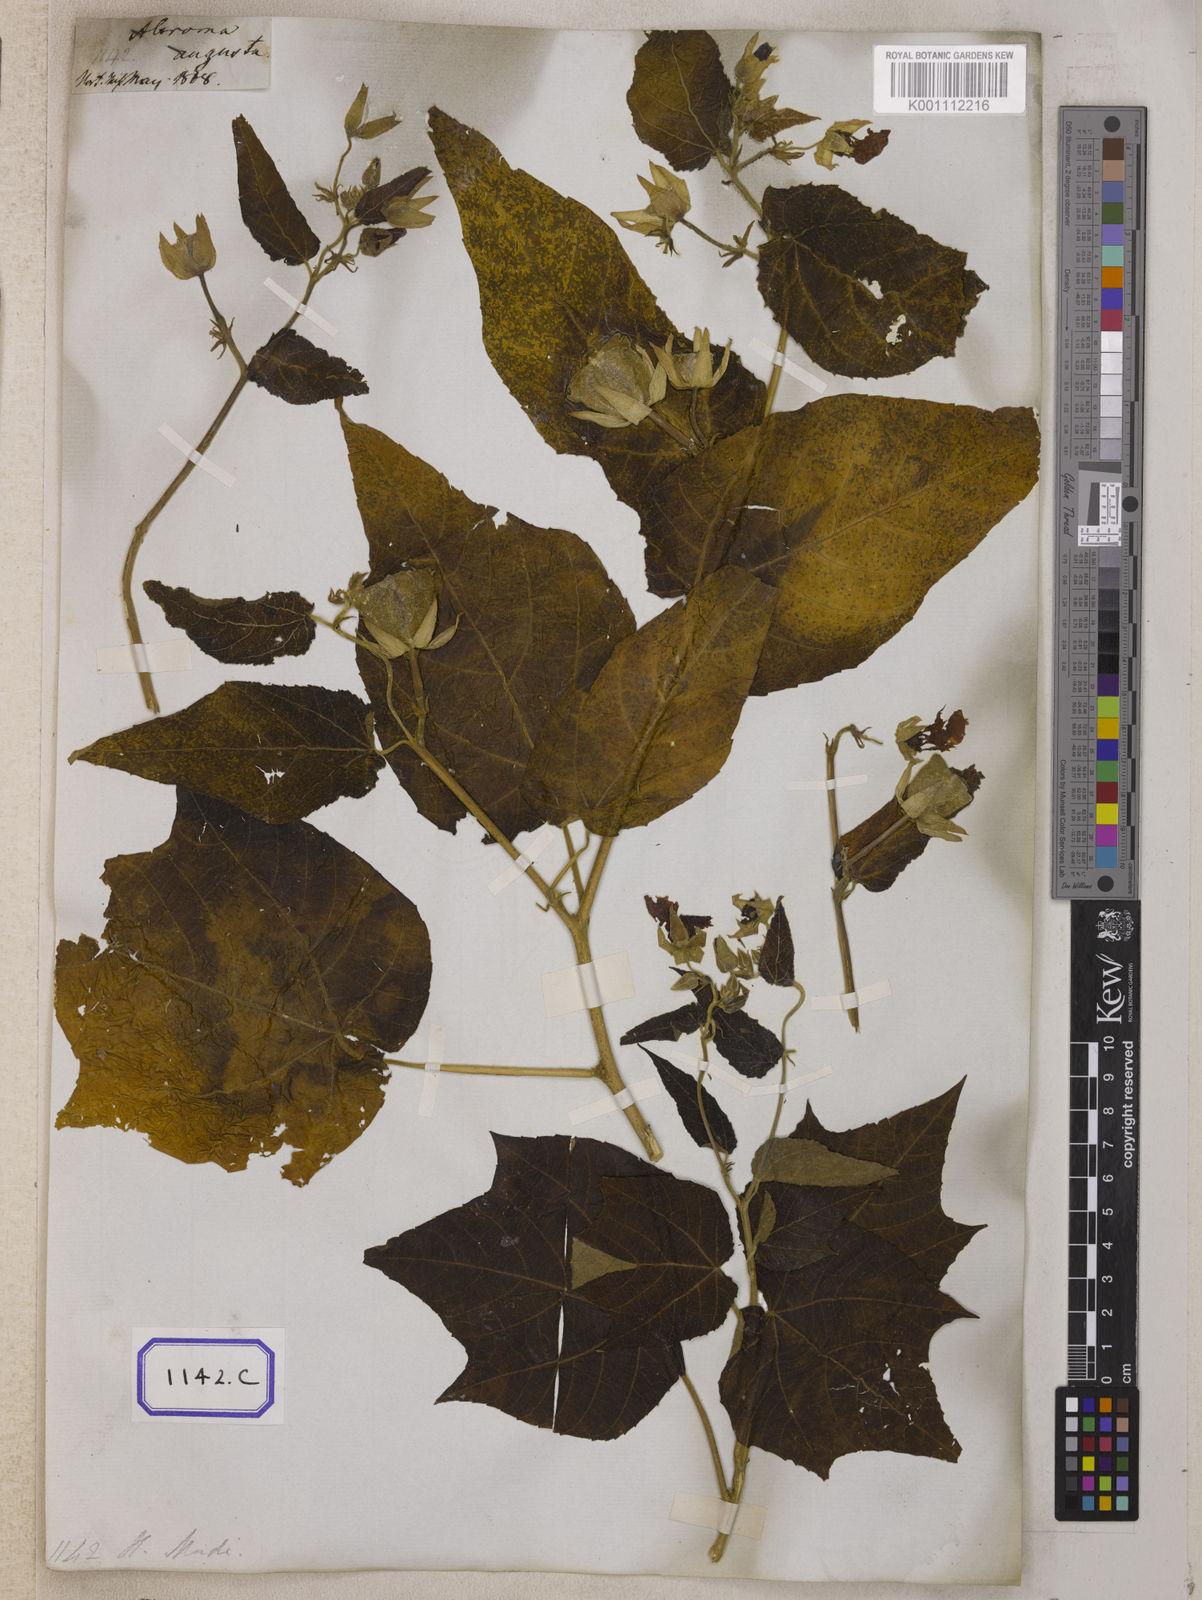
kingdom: Plantae
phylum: Tracheophyta
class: Magnoliopsida
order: Malvales
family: Malvaceae
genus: Abroma
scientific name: Abroma augustum
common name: Devil's-cotton
